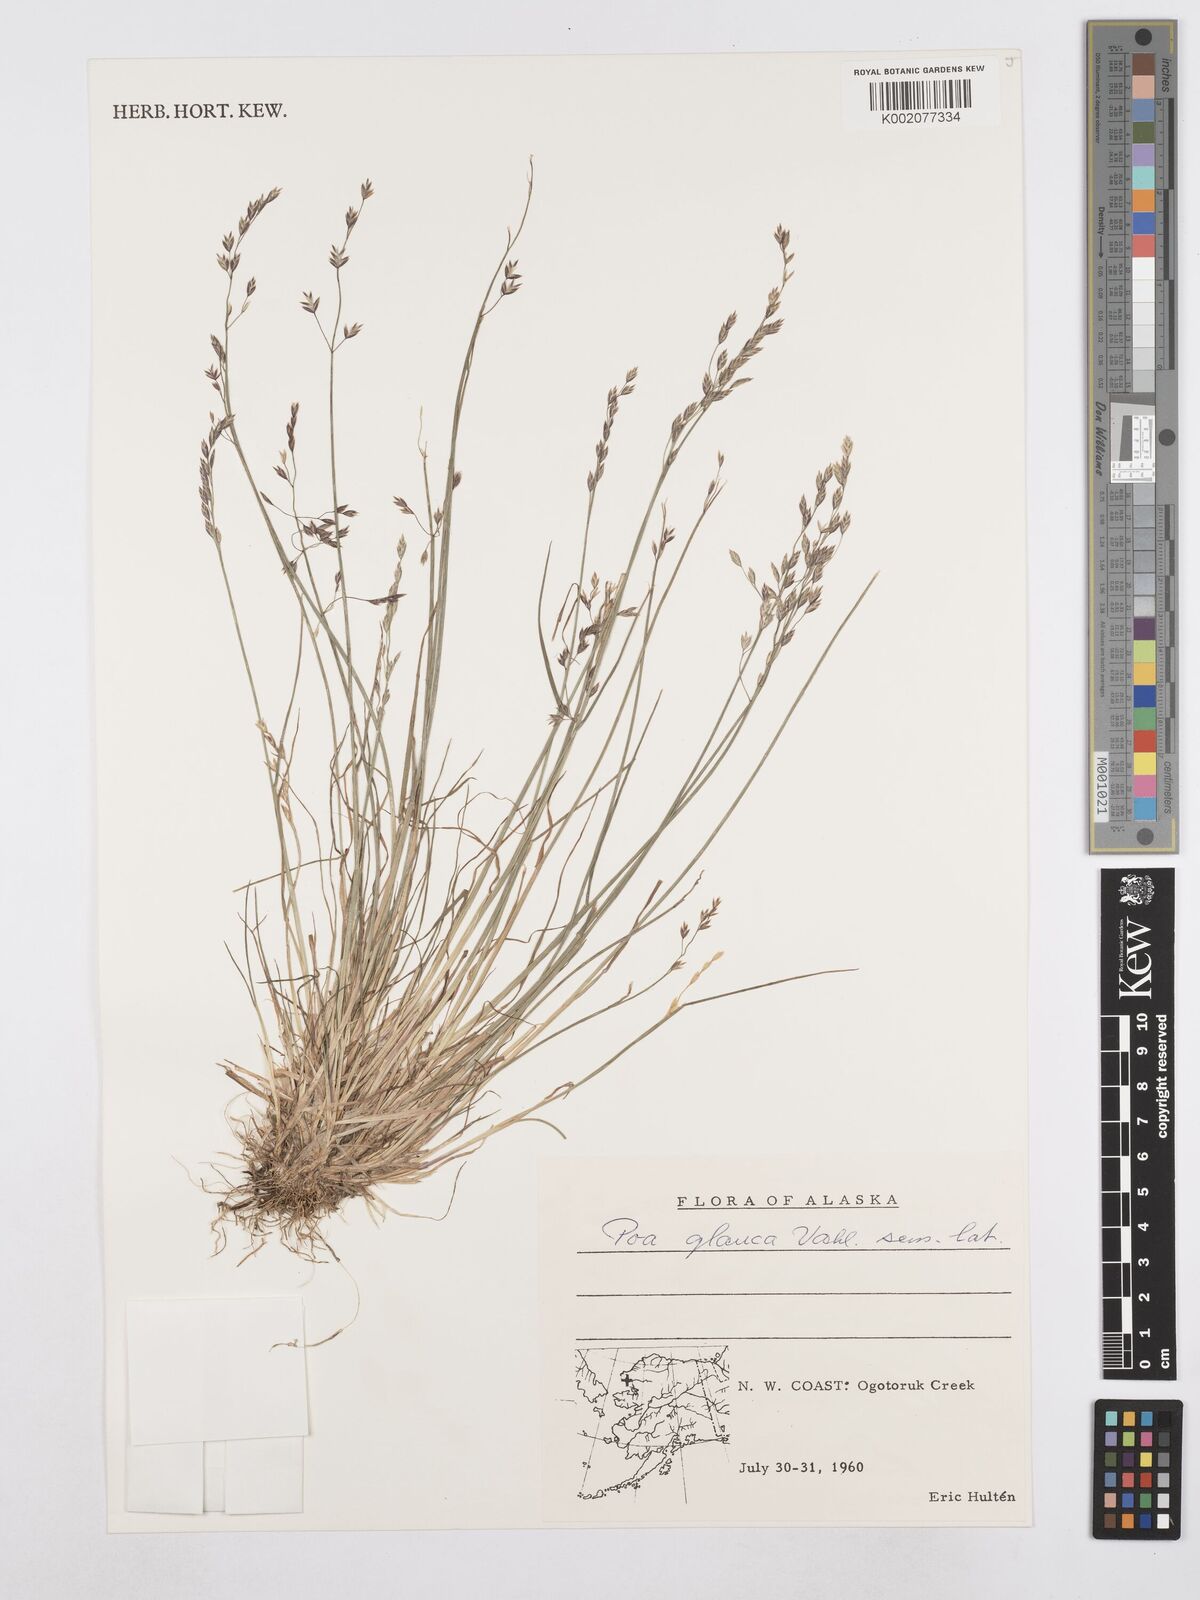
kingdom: Plantae
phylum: Tracheophyta
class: Liliopsida
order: Poales
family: Poaceae
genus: Poa
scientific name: Poa glauca
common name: Glaucous bluegrass
